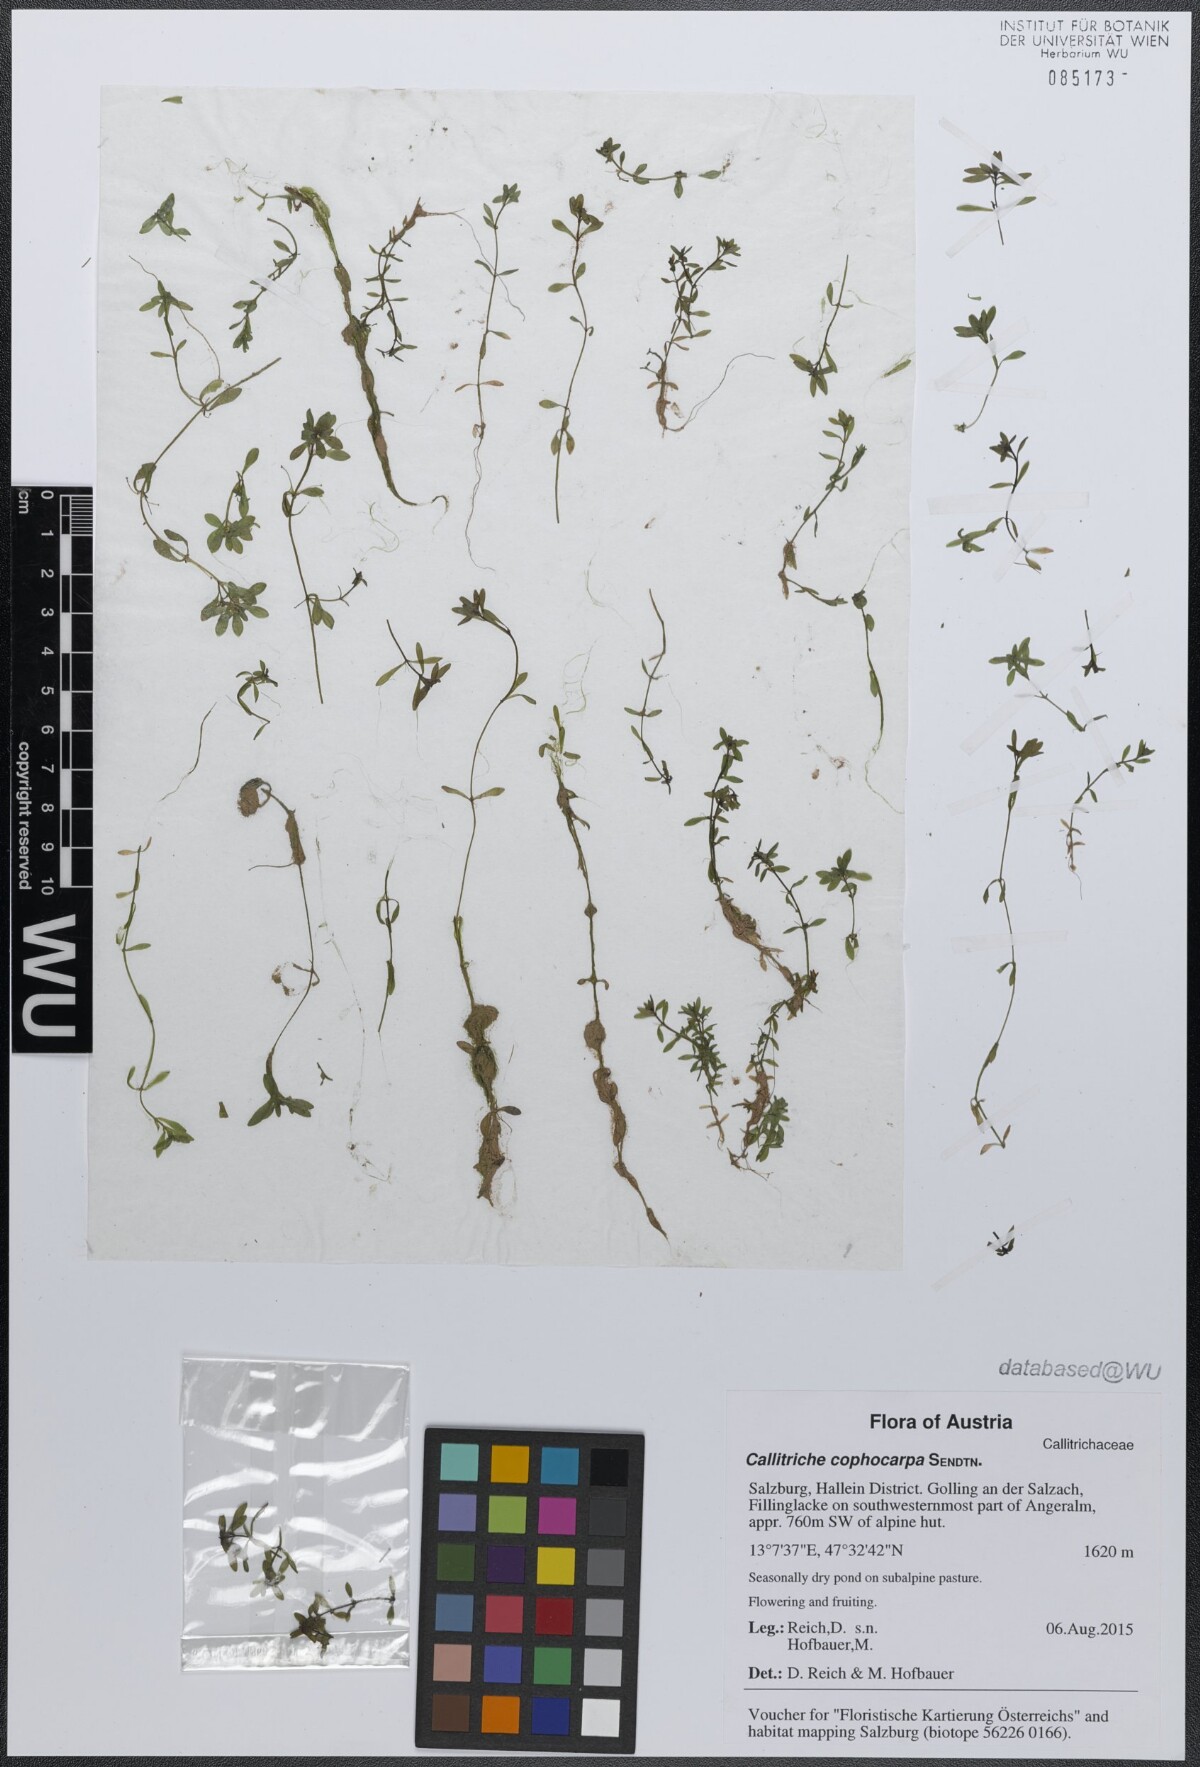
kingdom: Plantae
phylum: Tracheophyta
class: Magnoliopsida
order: Lamiales
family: Plantaginaceae
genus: Callitriche
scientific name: Callitriche cophocarpa
